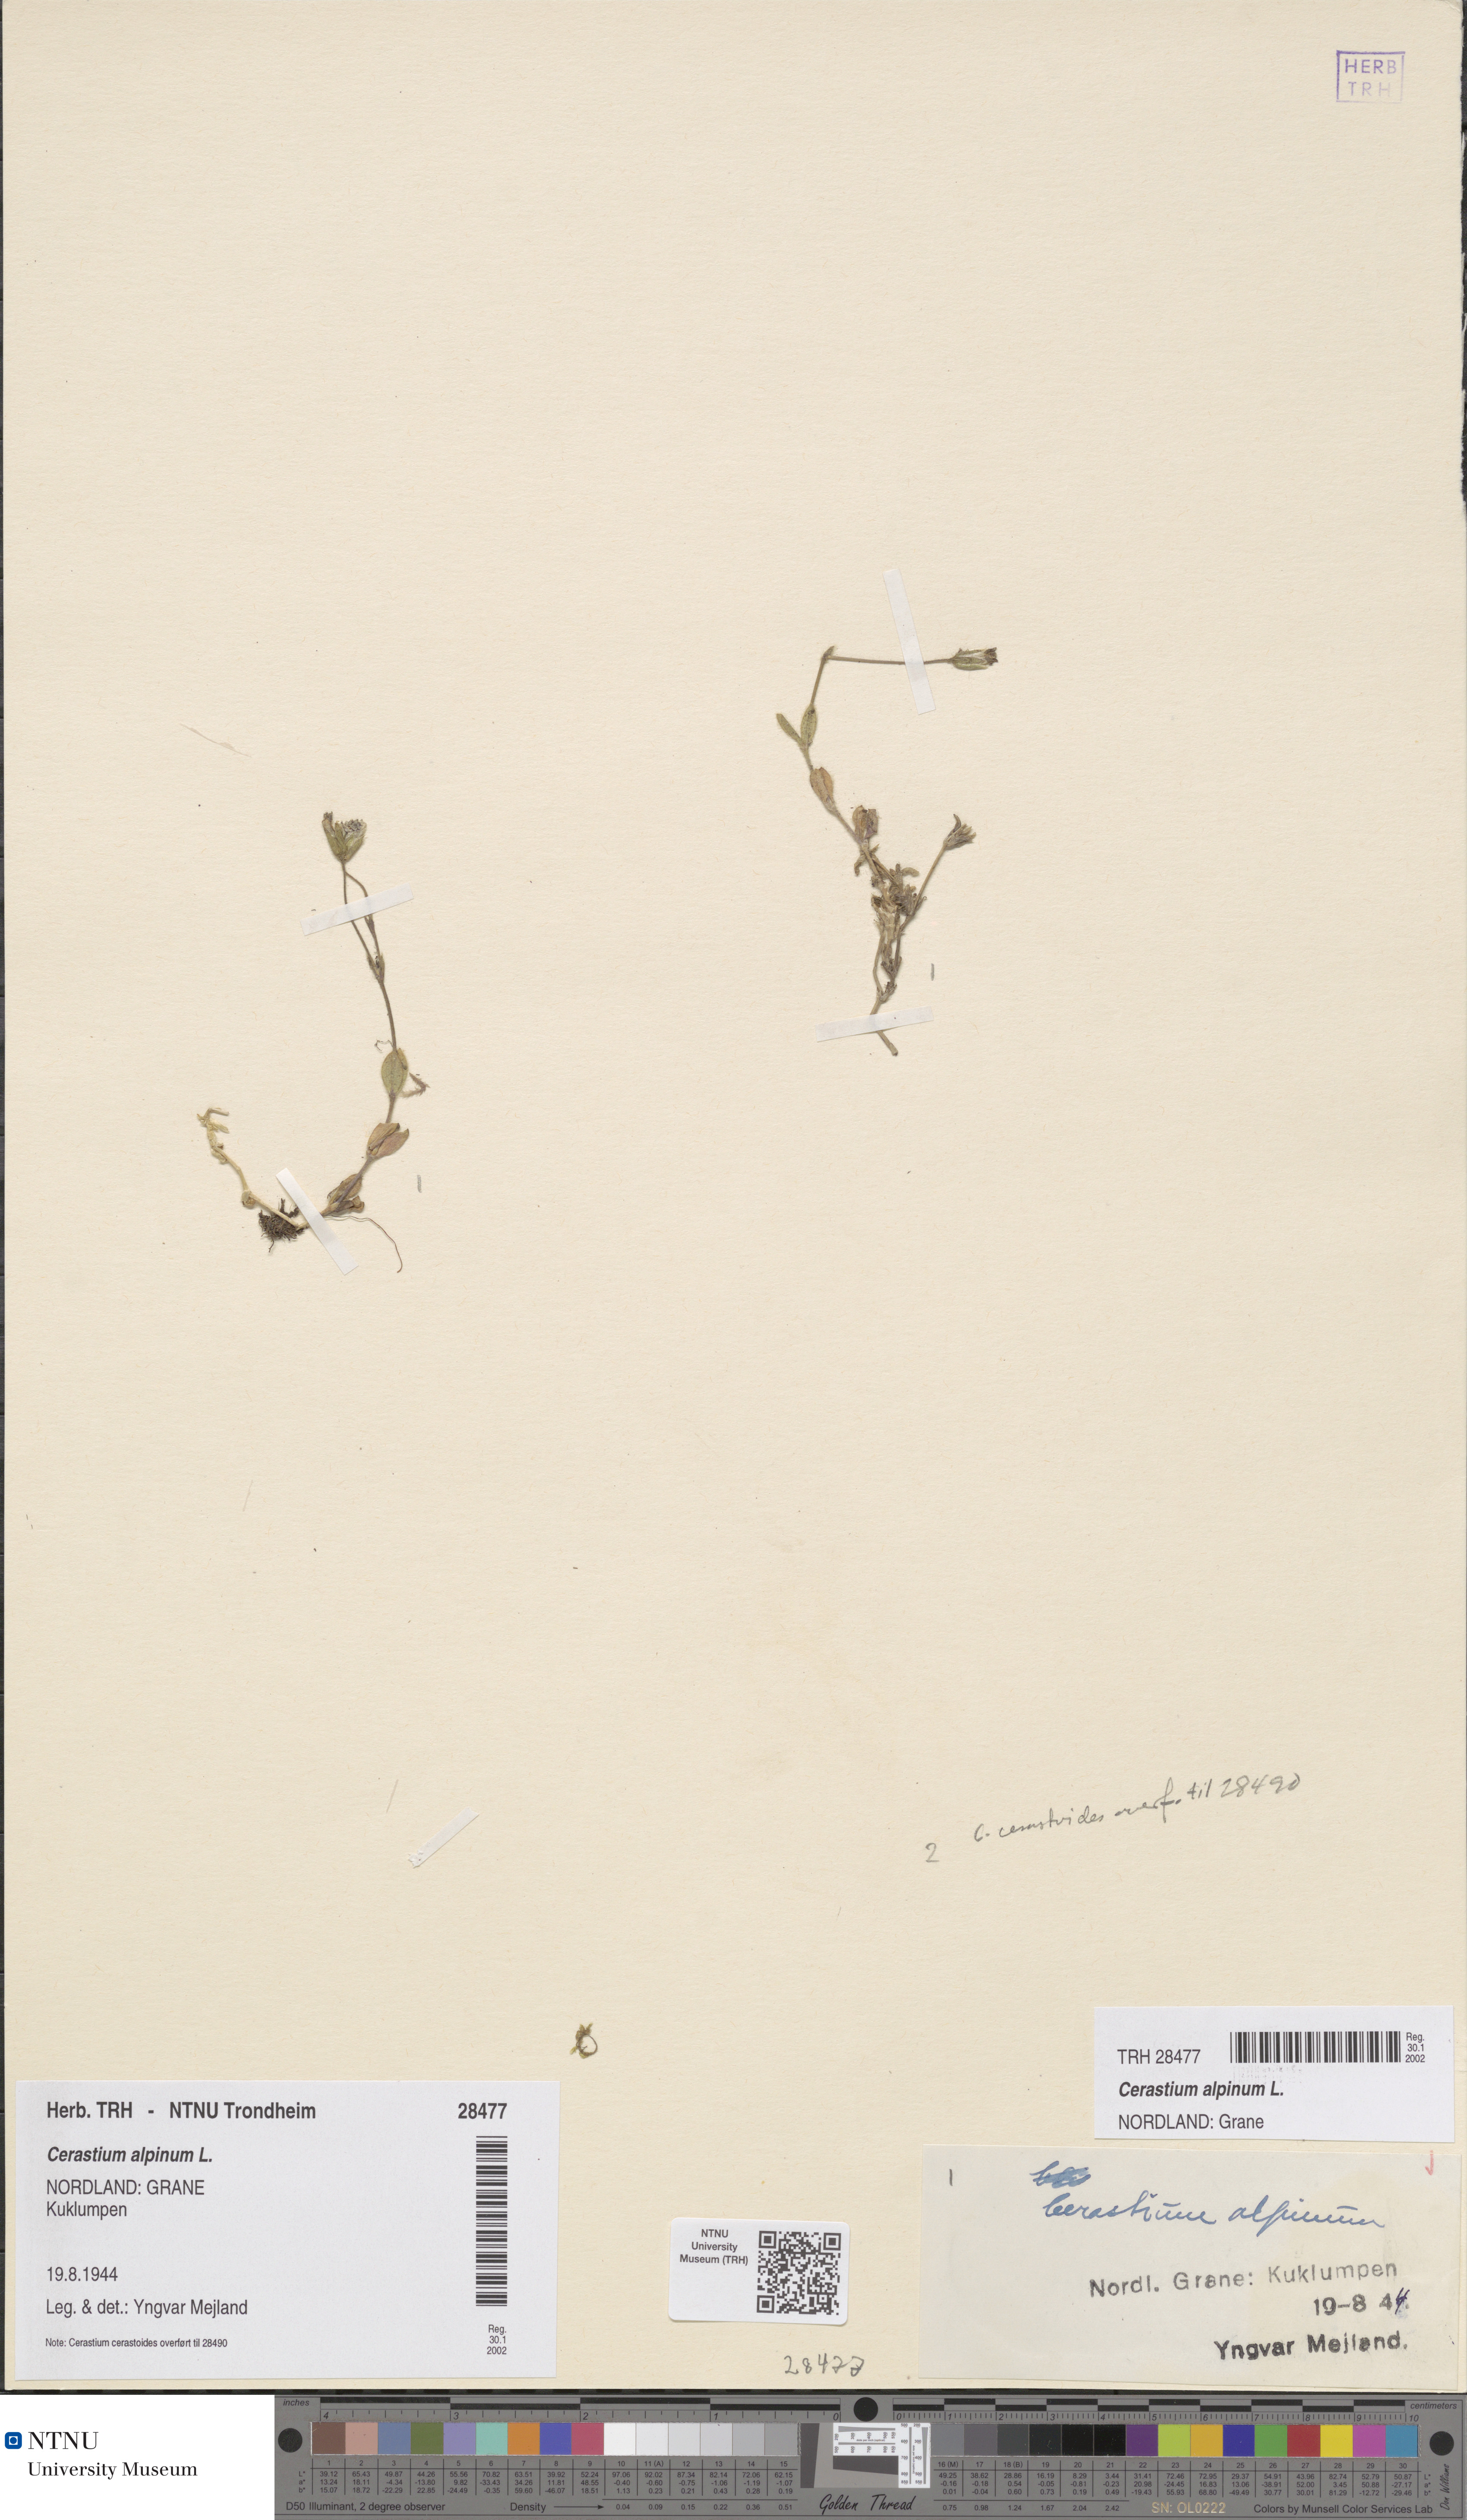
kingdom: Plantae
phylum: Tracheophyta
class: Magnoliopsida
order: Caryophyllales
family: Caryophyllaceae
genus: Cerastium
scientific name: Cerastium alpinum
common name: Alpine mouse-ear
